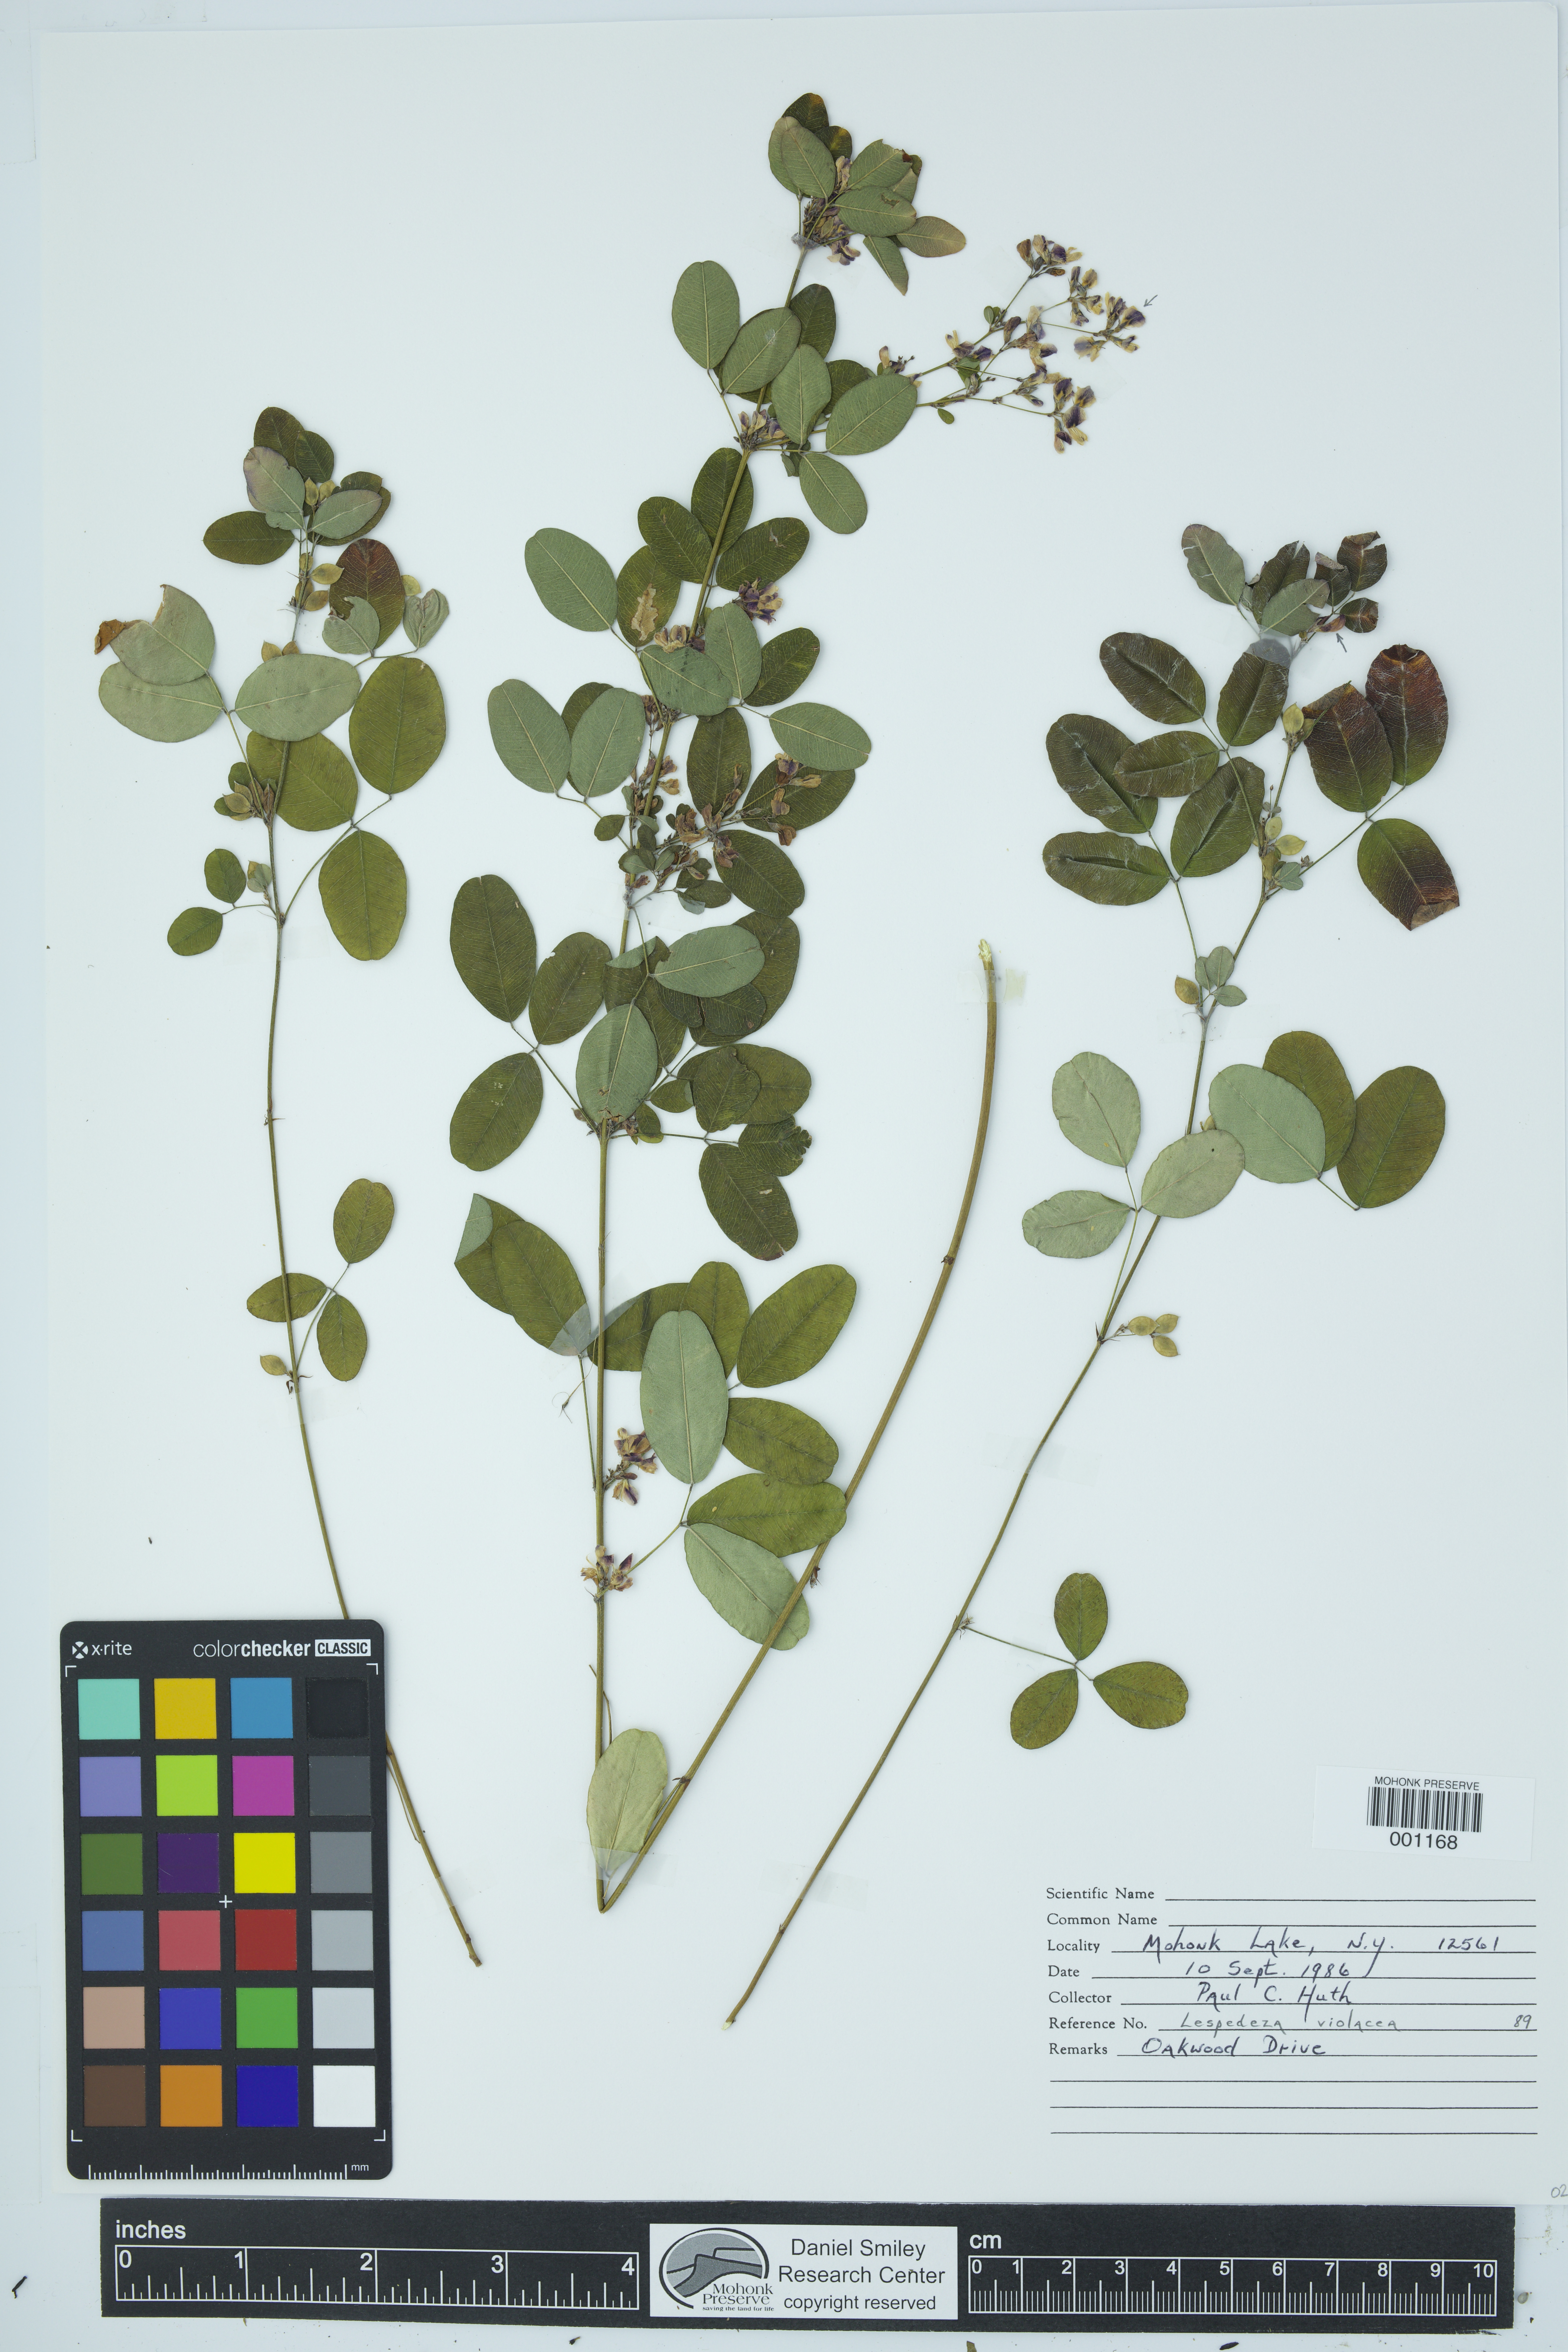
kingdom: Plantae
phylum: Tracheophyta
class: Magnoliopsida
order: Fabales
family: Fabaceae
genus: Lespedeza
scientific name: Lespedeza violacea
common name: Wand bush-clover
